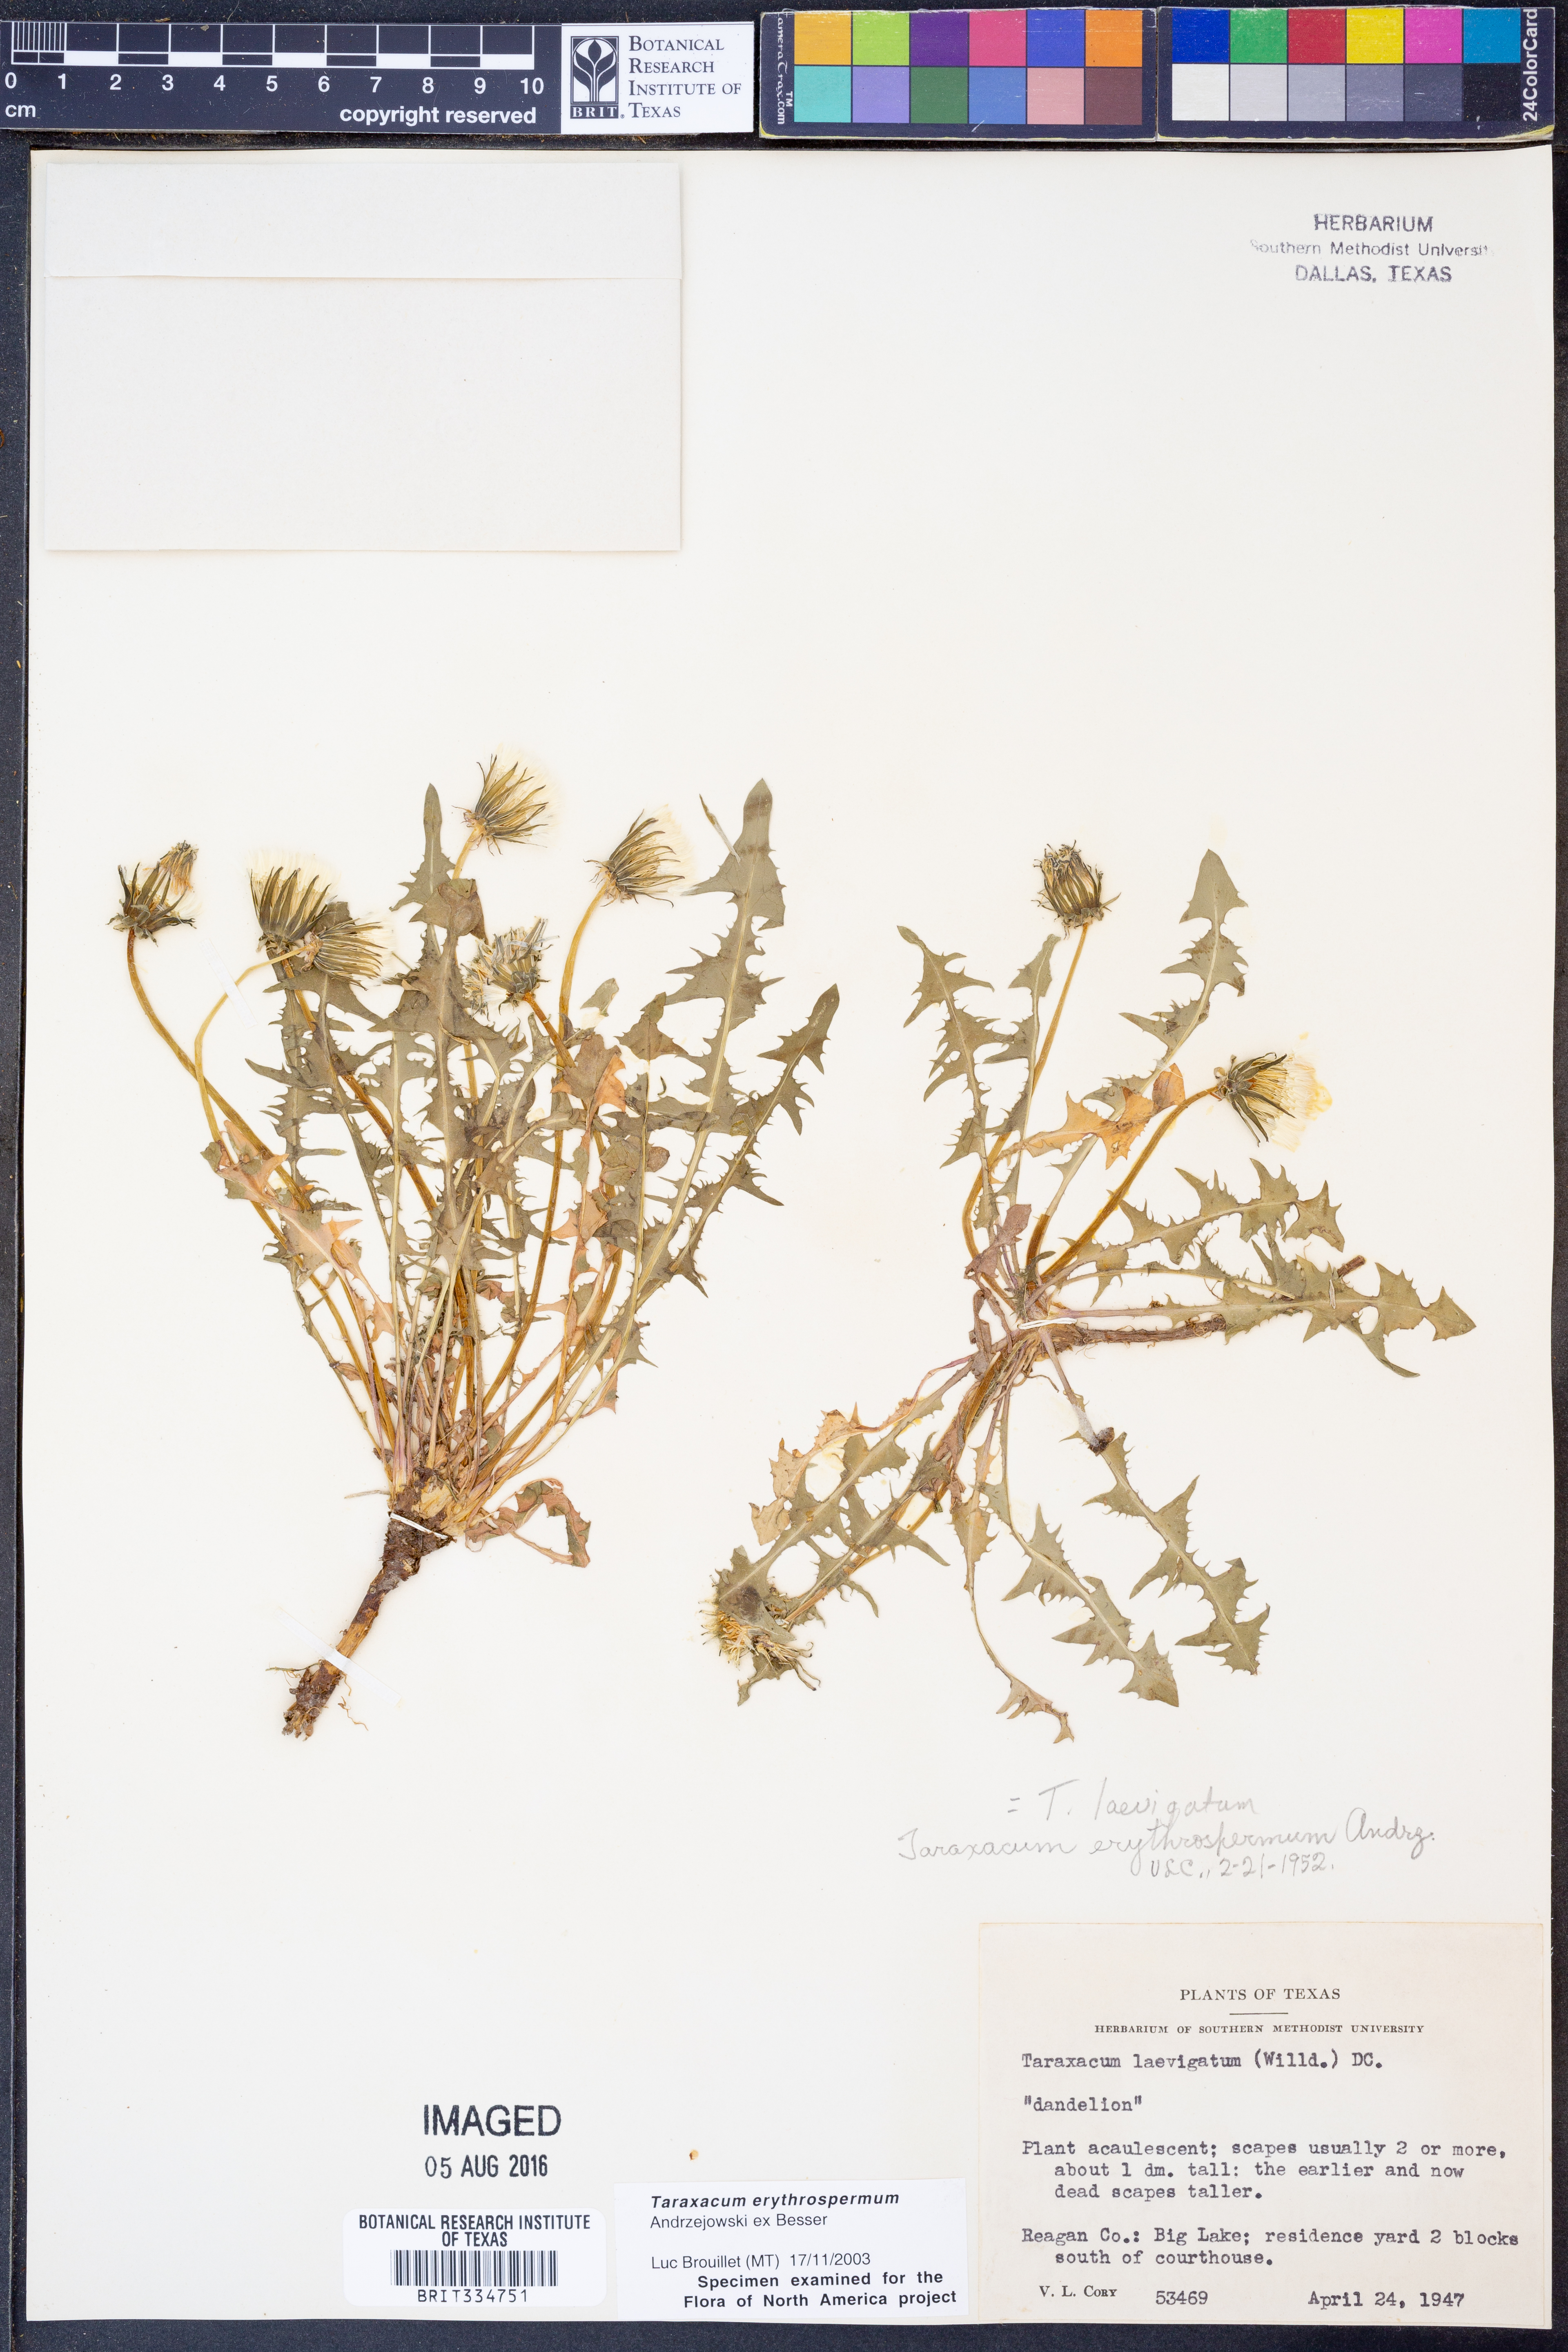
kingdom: Plantae
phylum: Tracheophyta
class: Magnoliopsida
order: Asterales
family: Asteraceae
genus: Taraxacum
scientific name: Taraxacum erythrospermum
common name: Rock dandelion
